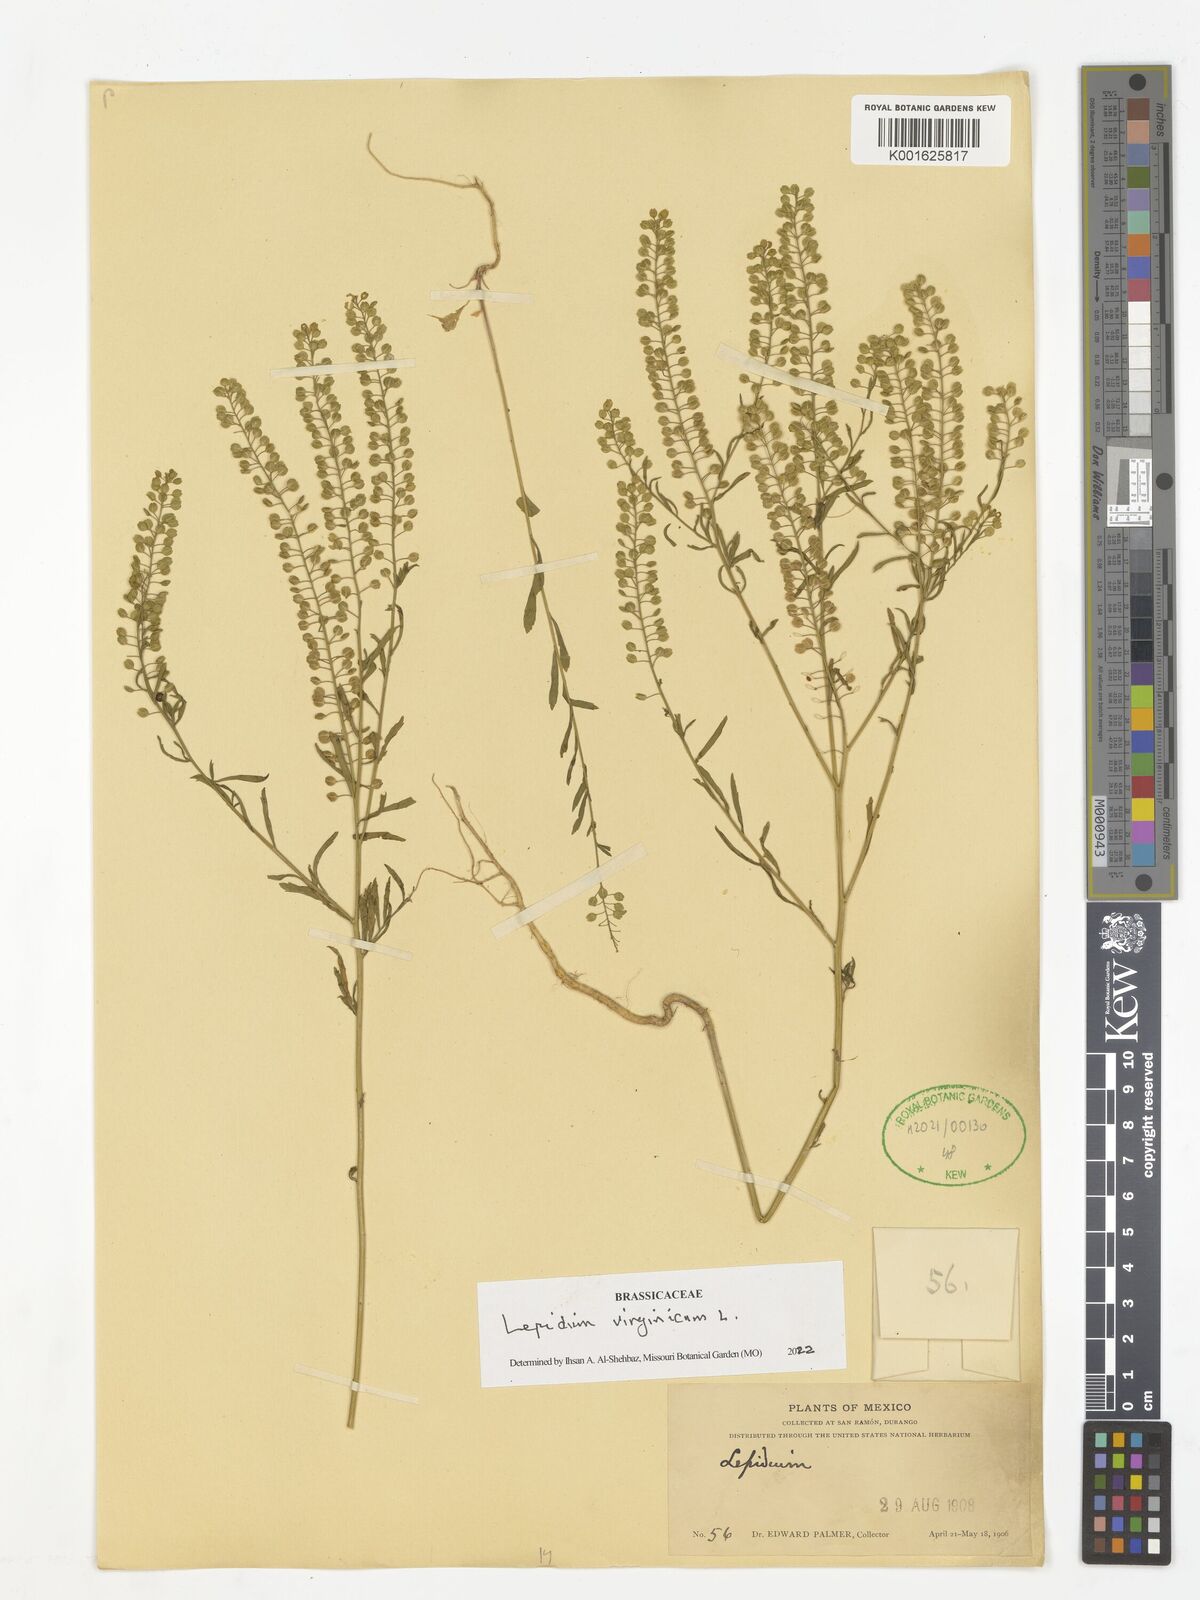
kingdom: Plantae
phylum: Tracheophyta
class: Magnoliopsida
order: Brassicales
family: Brassicaceae
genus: Lepidium
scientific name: Lepidium virginicum
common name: Least pepperwort
